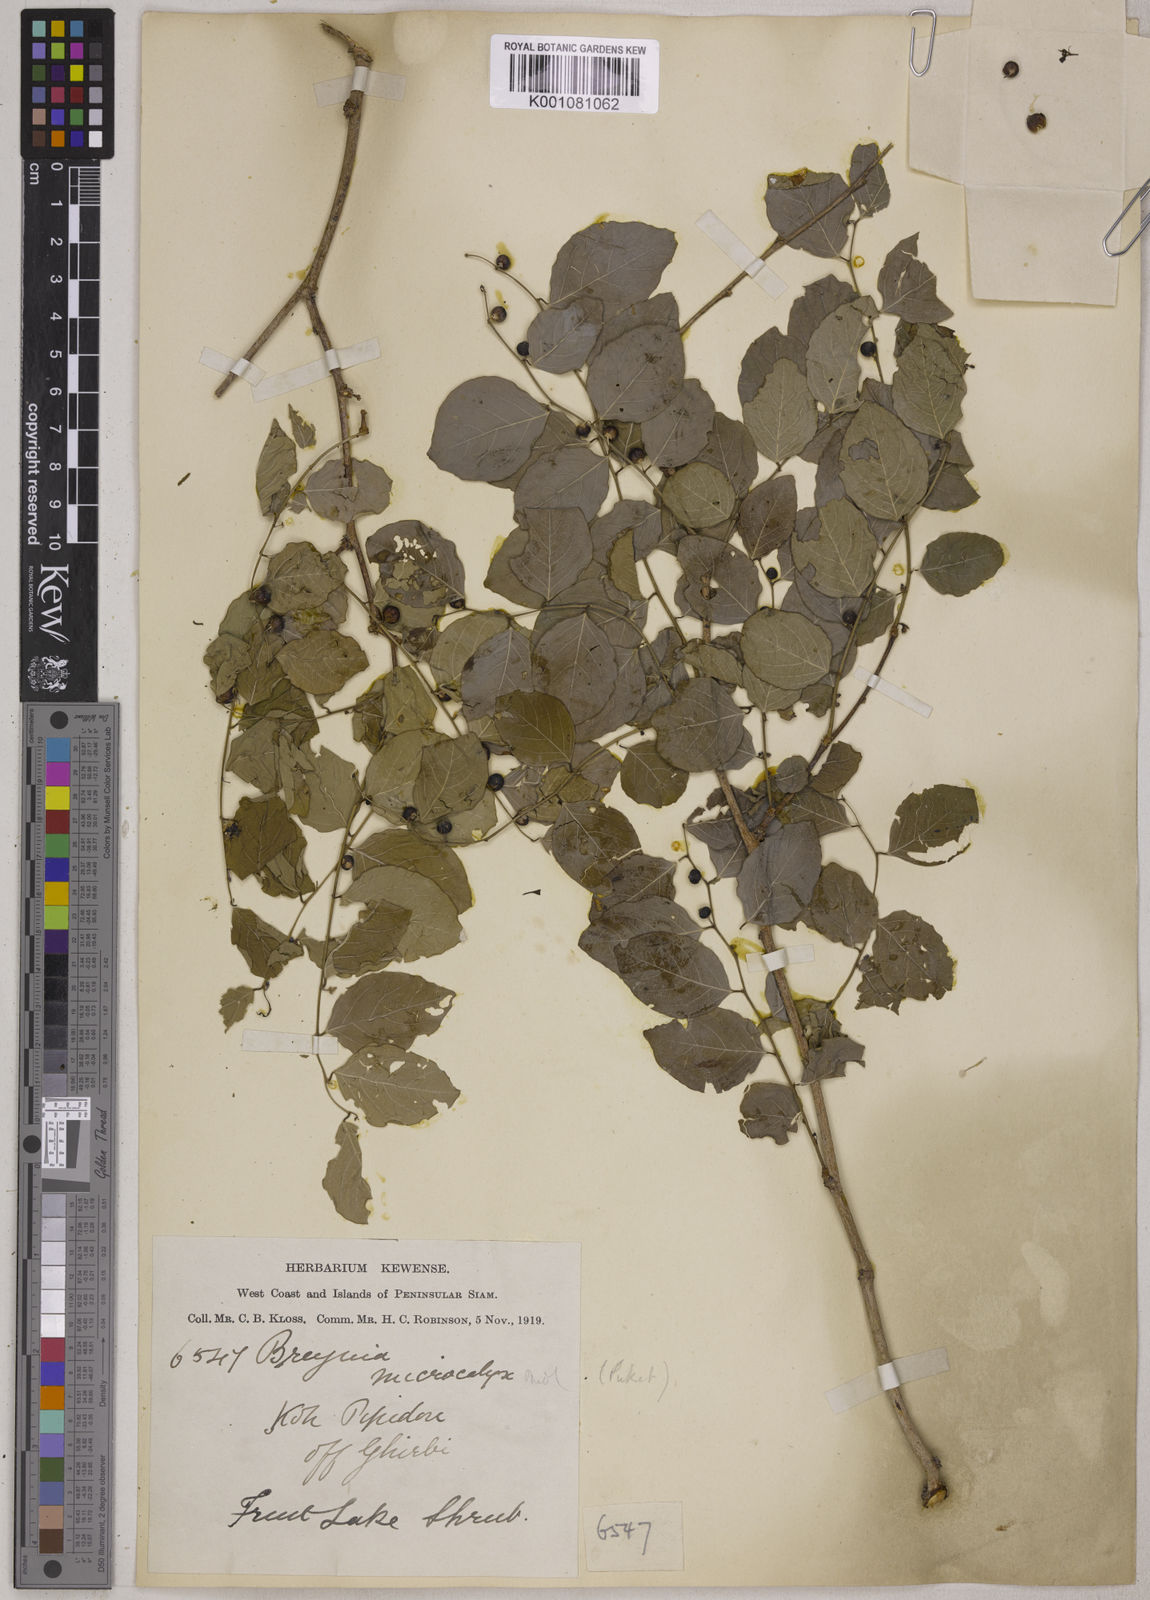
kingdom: Plantae
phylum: Tracheophyta
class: Magnoliopsida
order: Malpighiales
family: Phyllanthaceae
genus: Breynia
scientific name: Breynia vitis-idaea
